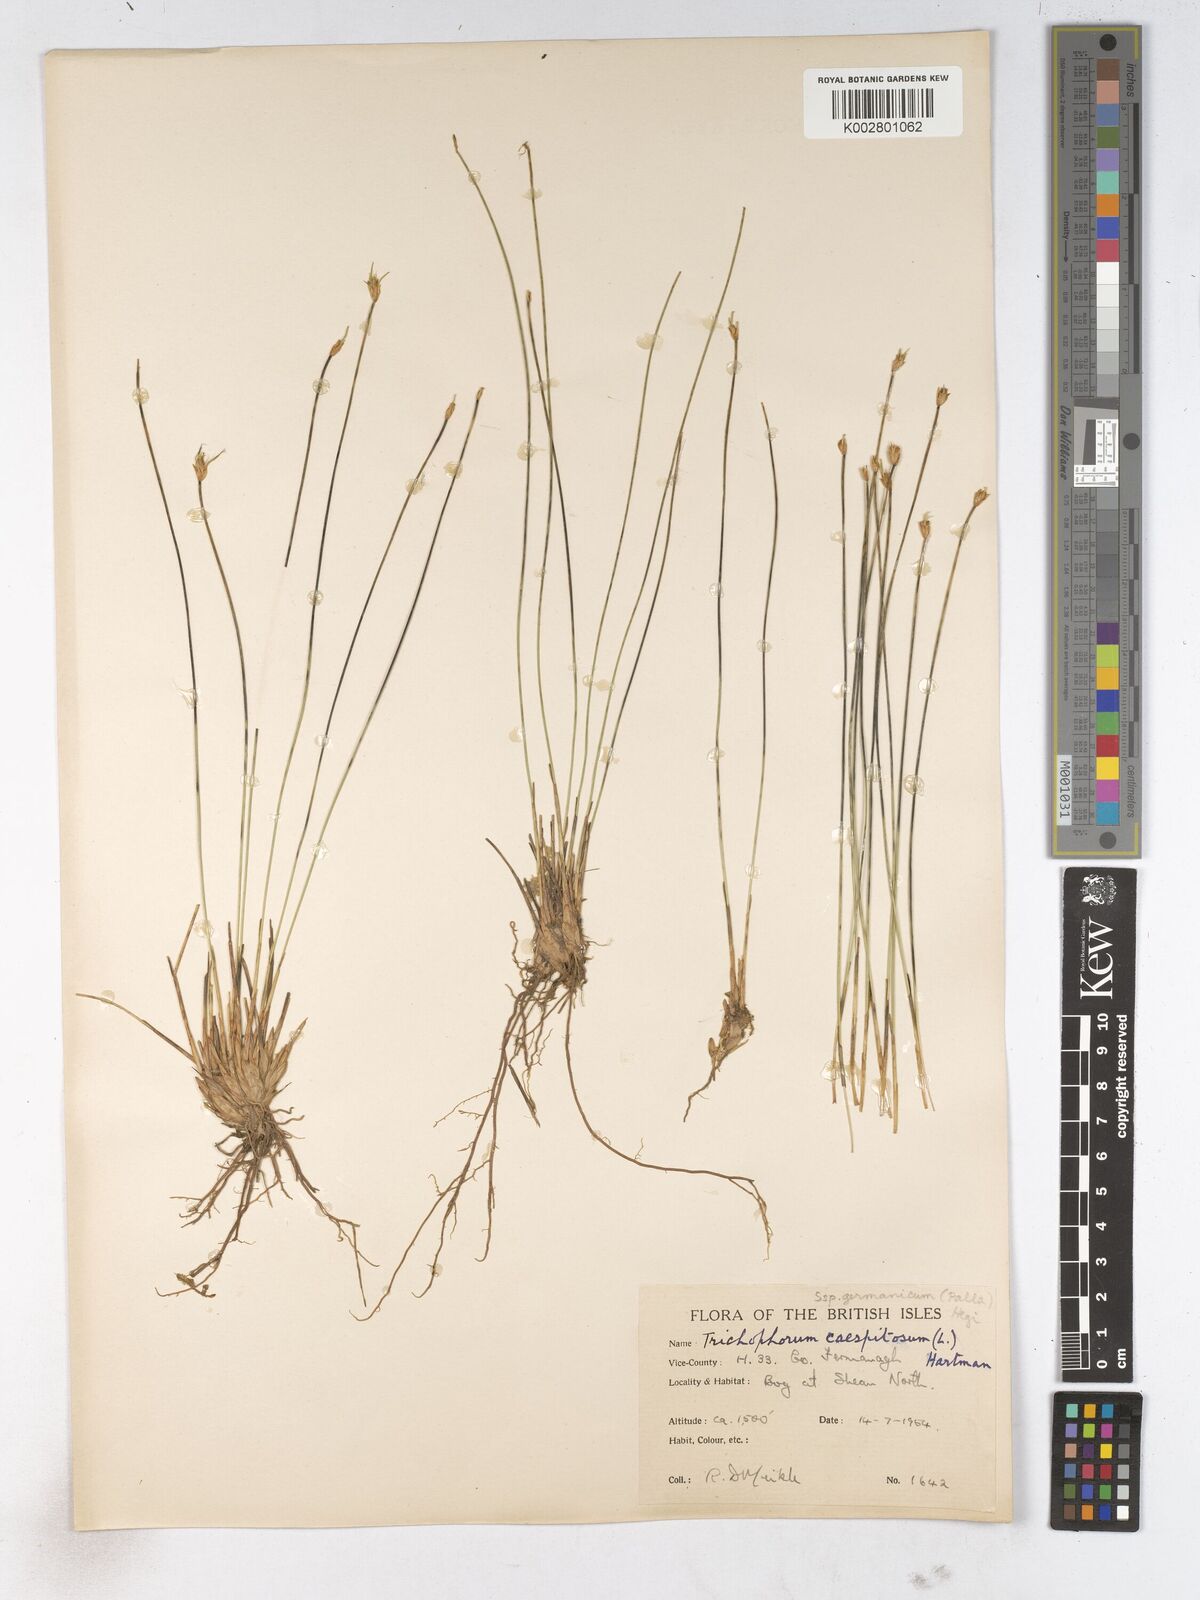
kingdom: Plantae
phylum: Tracheophyta
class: Liliopsida
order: Poales
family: Cyperaceae
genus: Trichophorum
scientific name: Trichophorum cespitosum
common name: Cespitose bulrush
